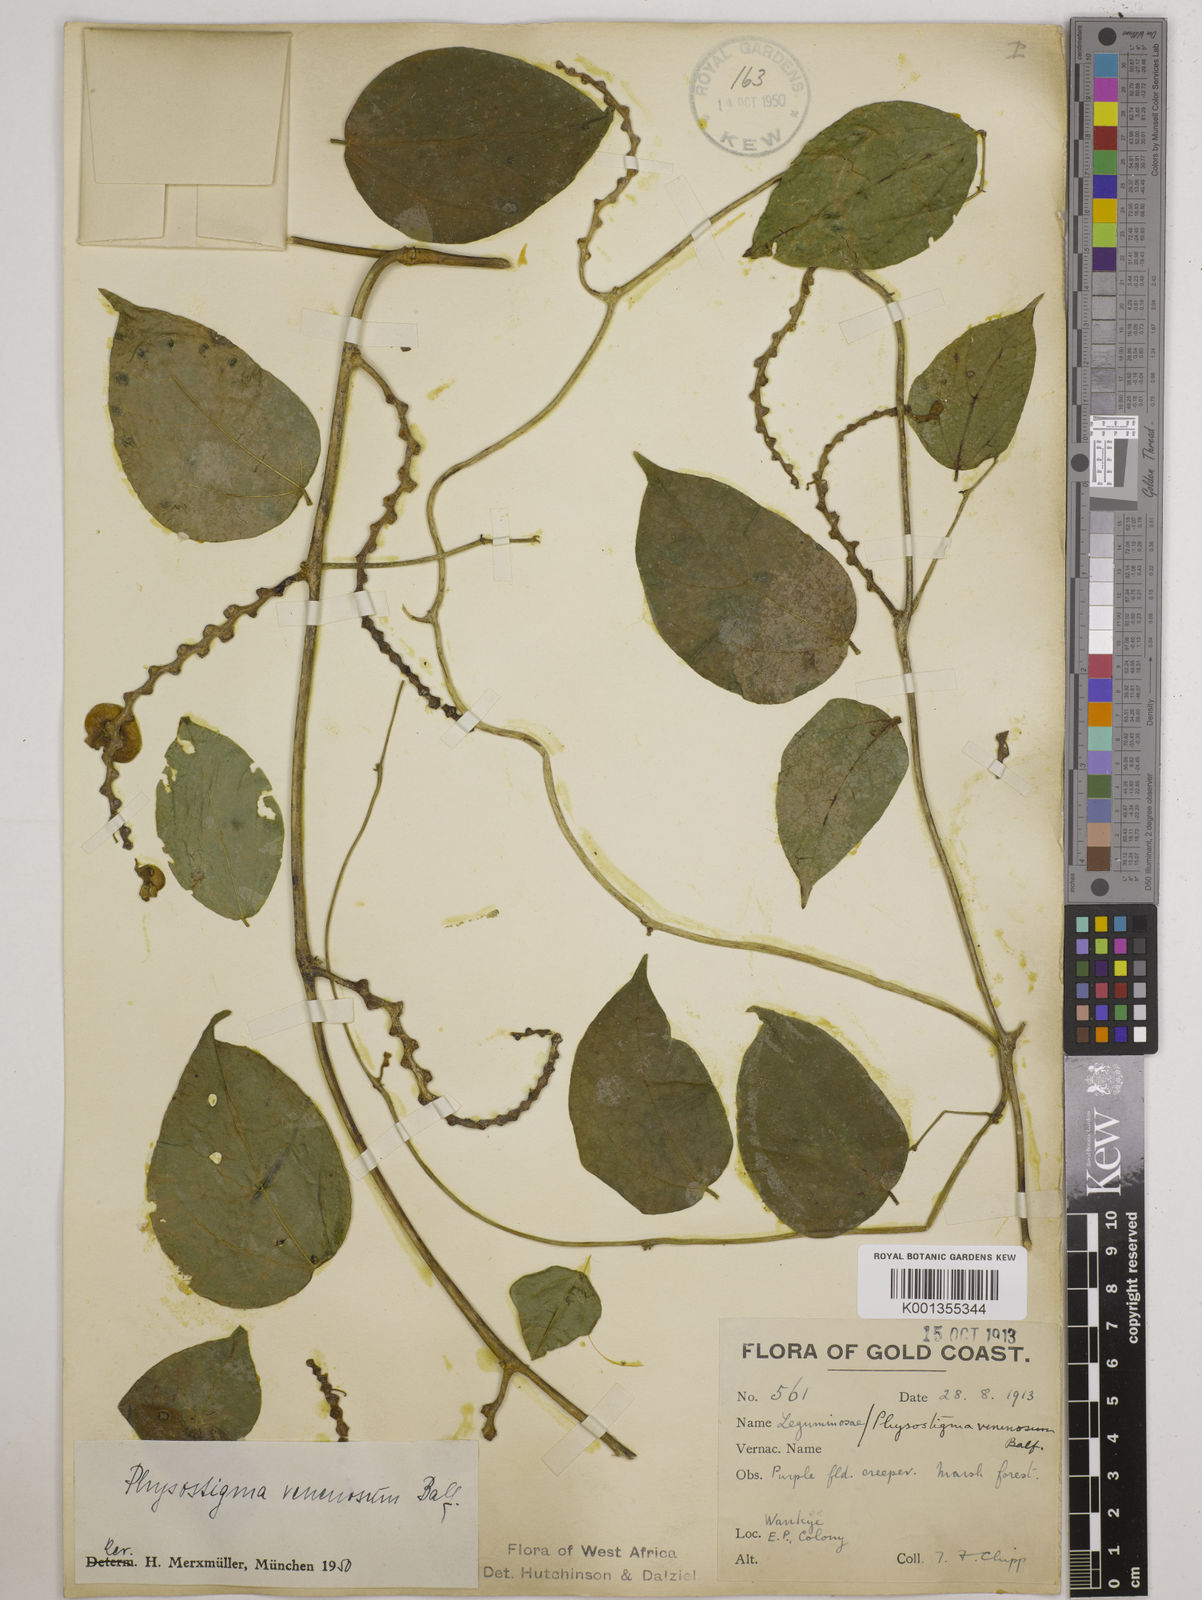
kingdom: Plantae
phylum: Tracheophyta
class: Magnoliopsida
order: Fabales
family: Fabaceae
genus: Physostigma
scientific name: Physostigma venenosum
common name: Calabar-bean
